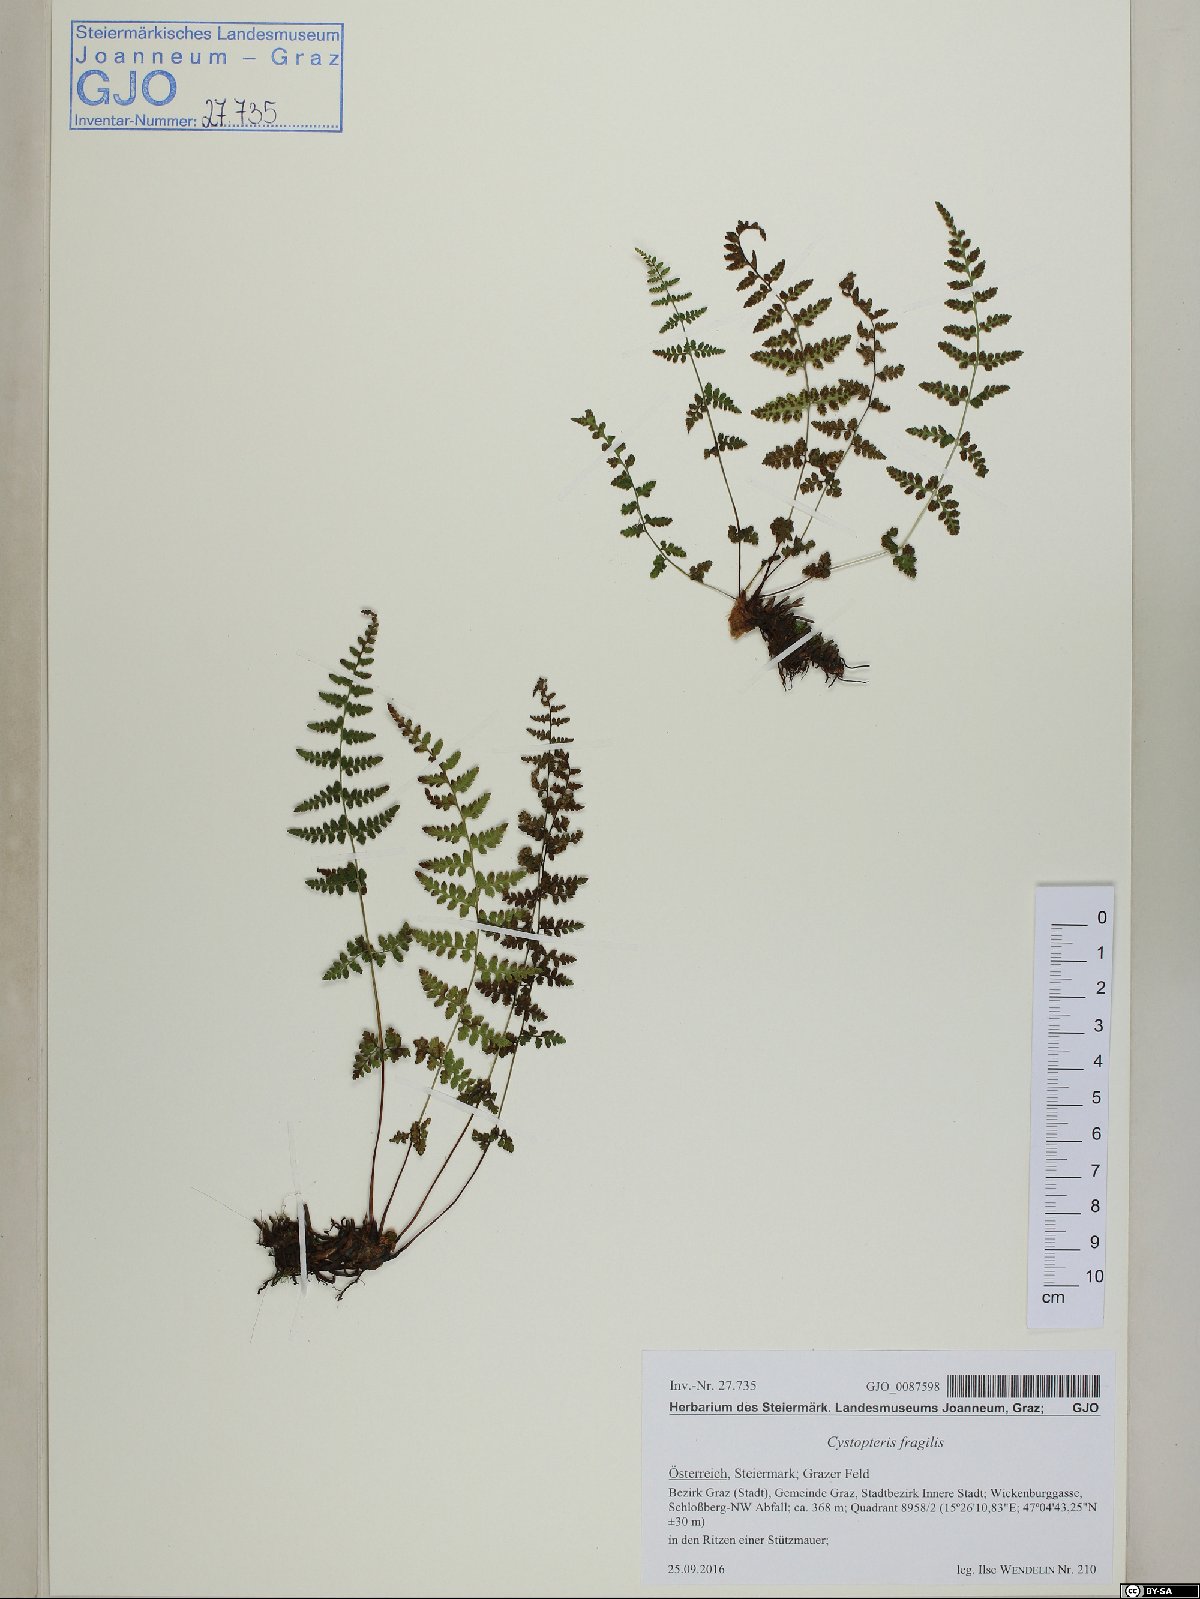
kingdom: Plantae
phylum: Tracheophyta
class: Polypodiopsida
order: Polypodiales
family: Cystopteridaceae
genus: Cystopteris
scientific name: Cystopteris fragilis
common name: Brittle bladder fern
